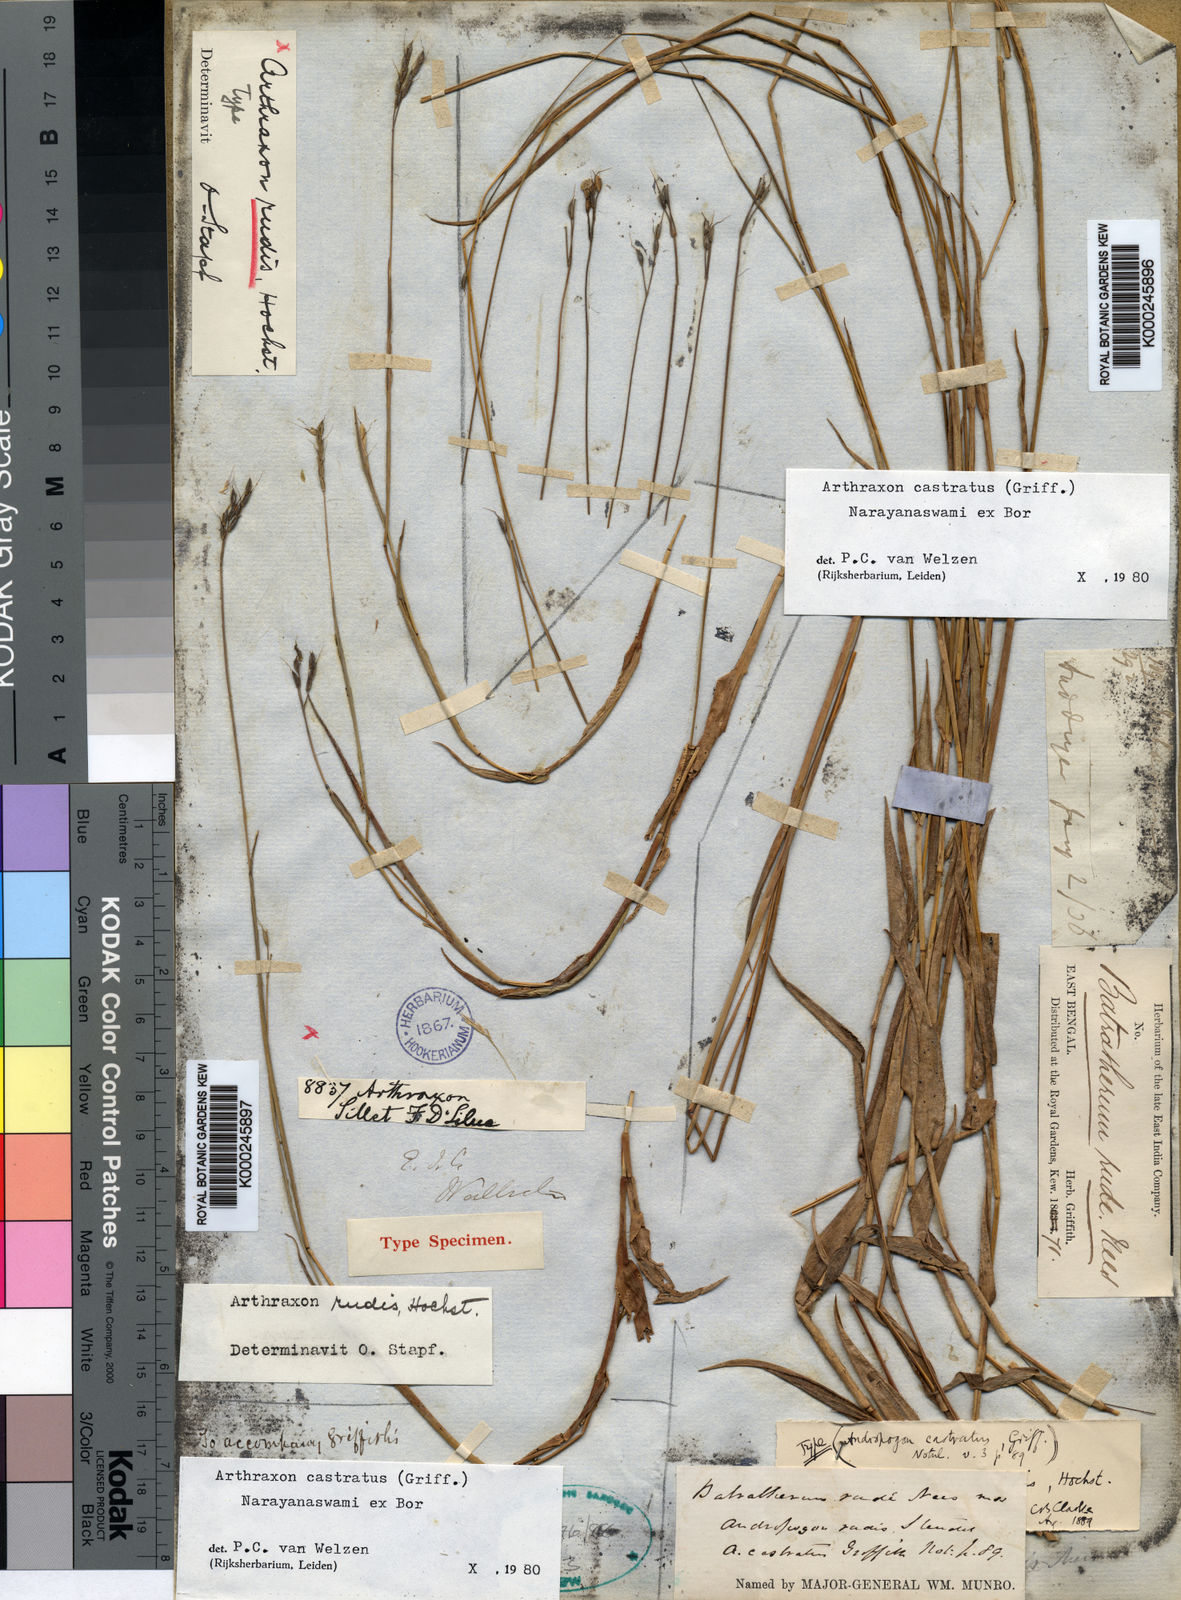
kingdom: Plantae
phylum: Tracheophyta
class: Liliopsida
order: Poales
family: Poaceae
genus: Arthraxon
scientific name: Arthraxon castratus
